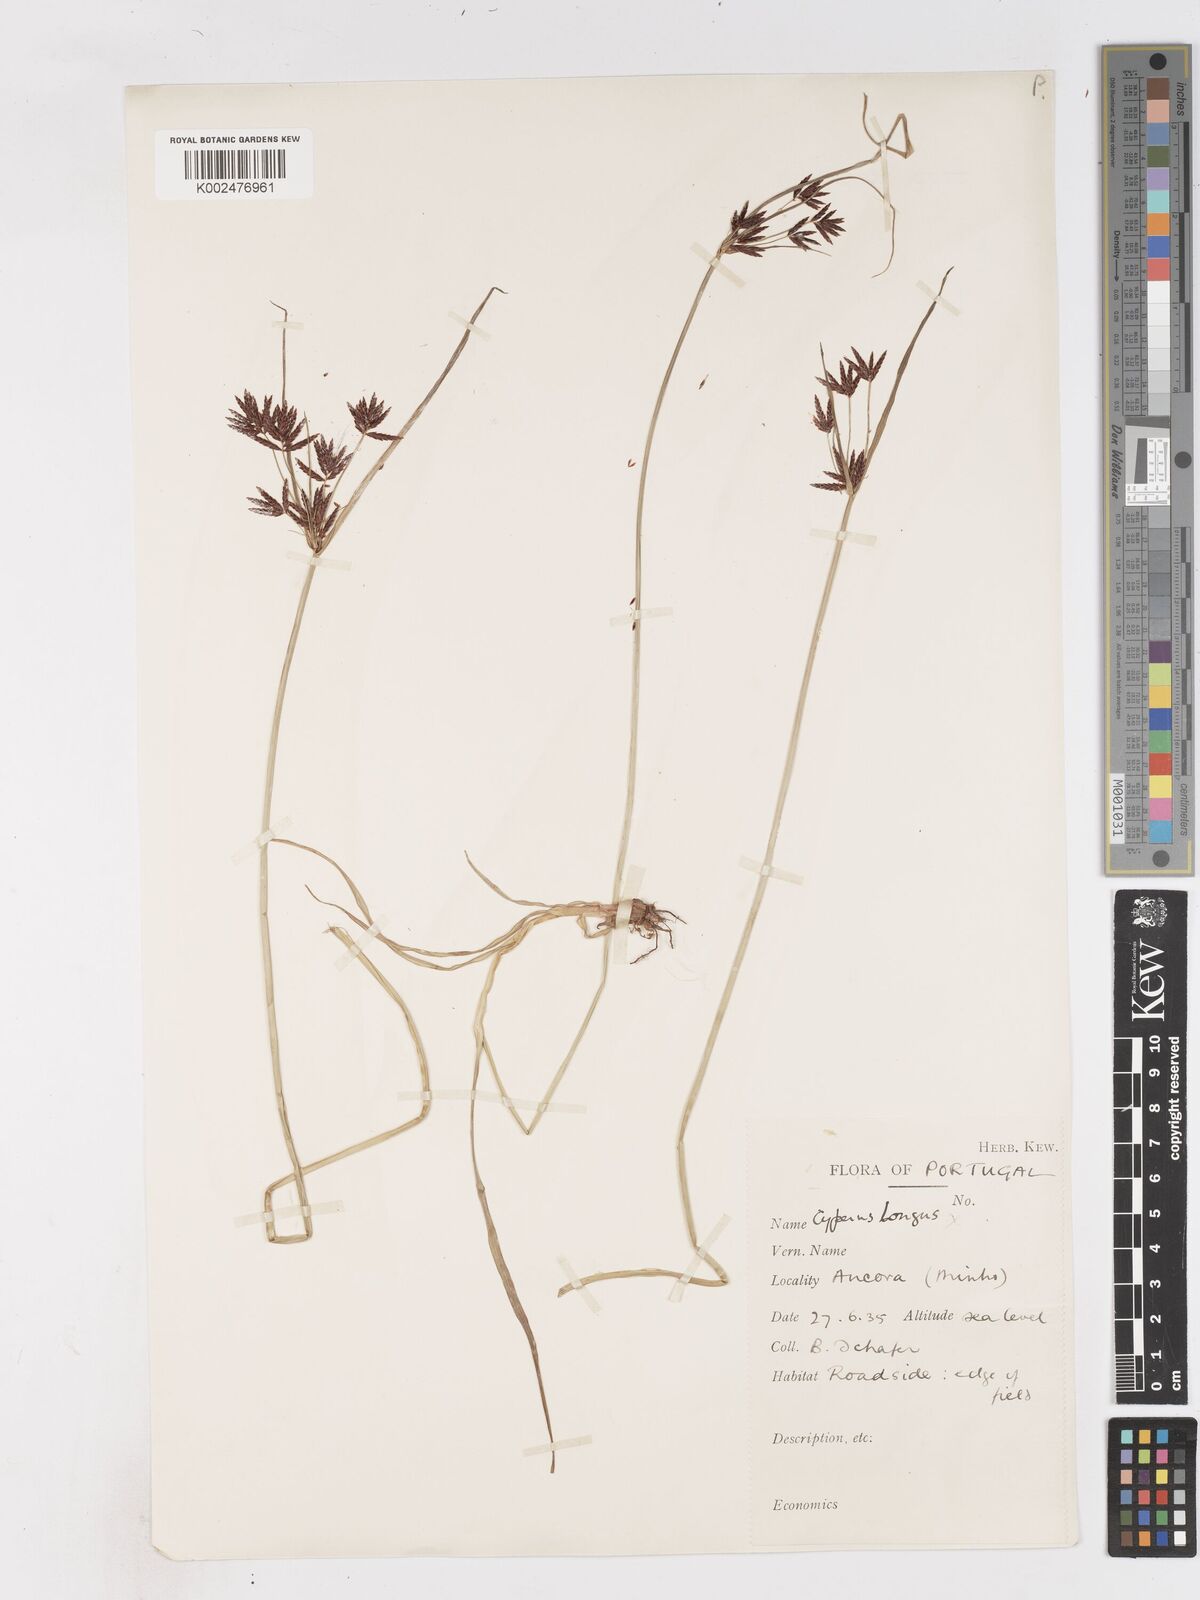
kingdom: Plantae
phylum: Tracheophyta
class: Liliopsida
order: Poales
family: Cyperaceae
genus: Cyperus
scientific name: Cyperus rotundus
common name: Nutgrass
